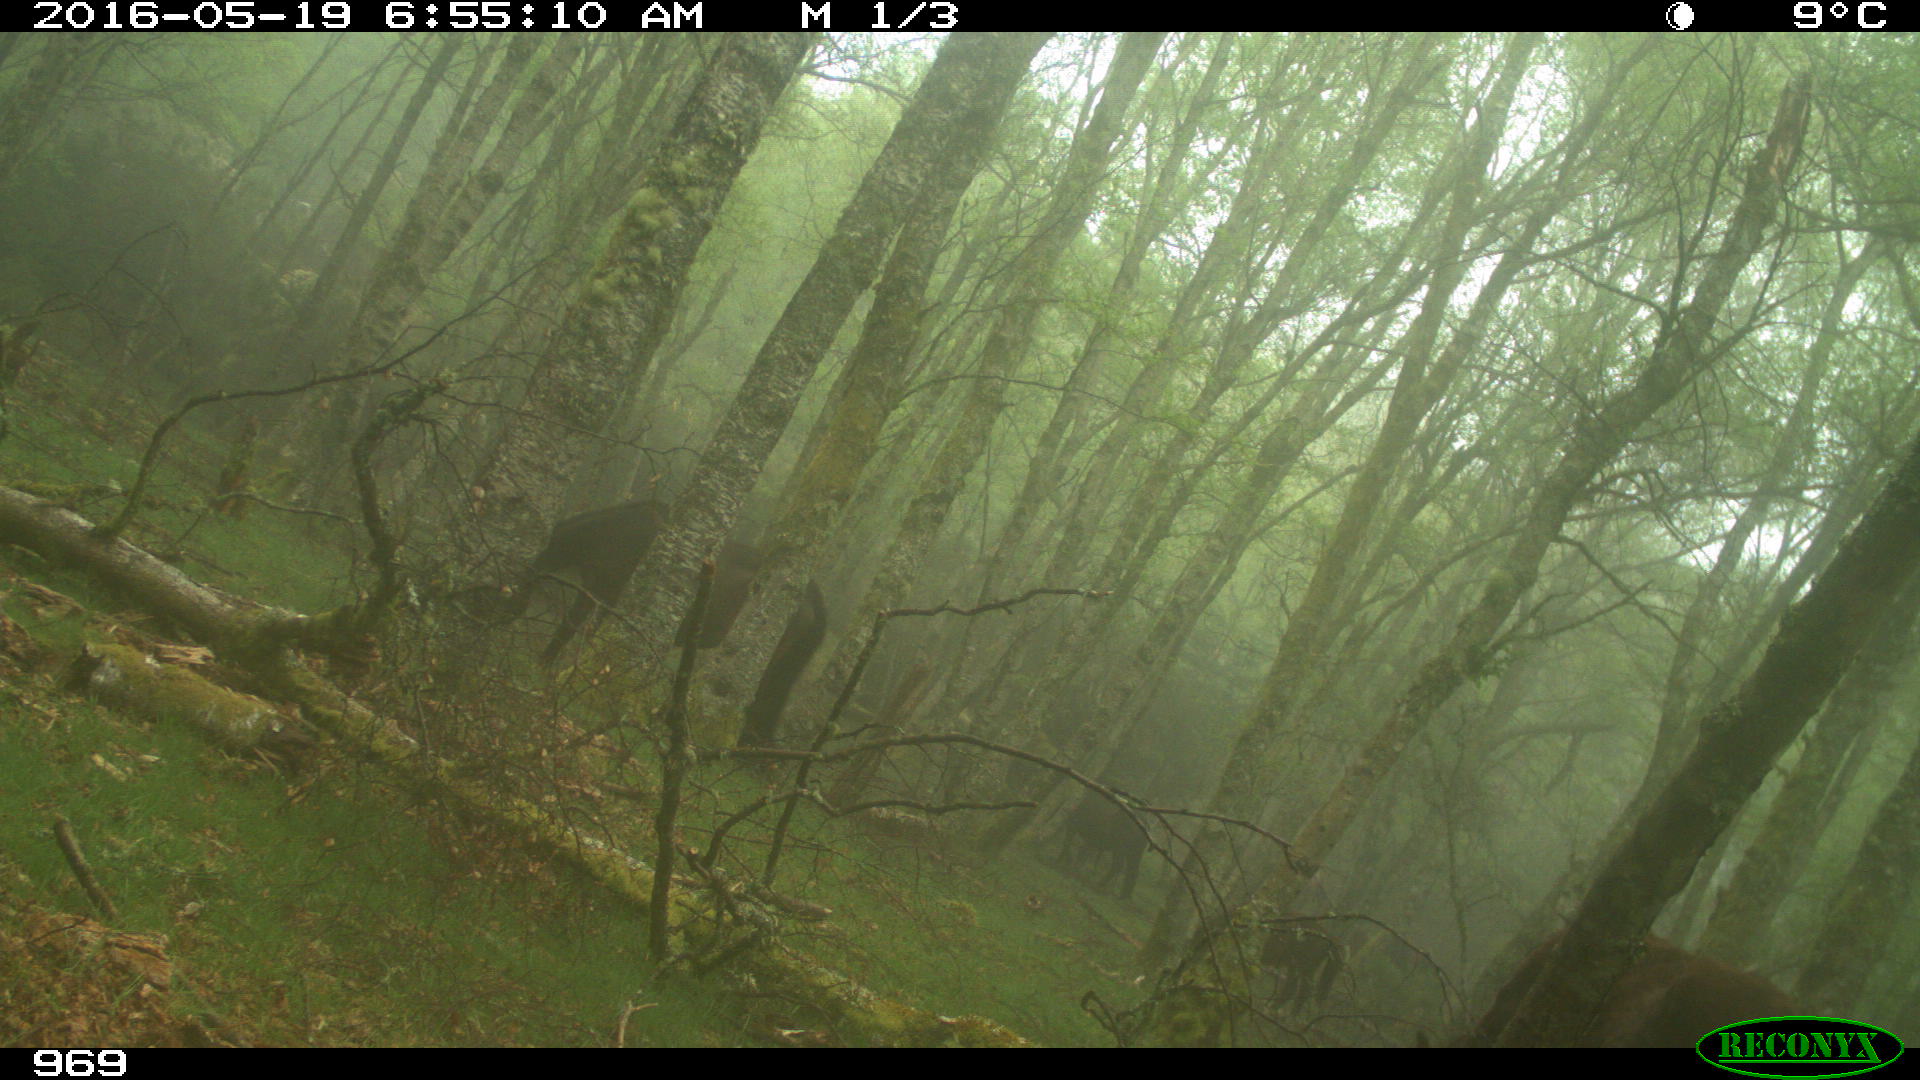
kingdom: Animalia
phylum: Chordata
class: Mammalia
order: Perissodactyla
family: Equidae
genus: Equus
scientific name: Equus caballus
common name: Horse
